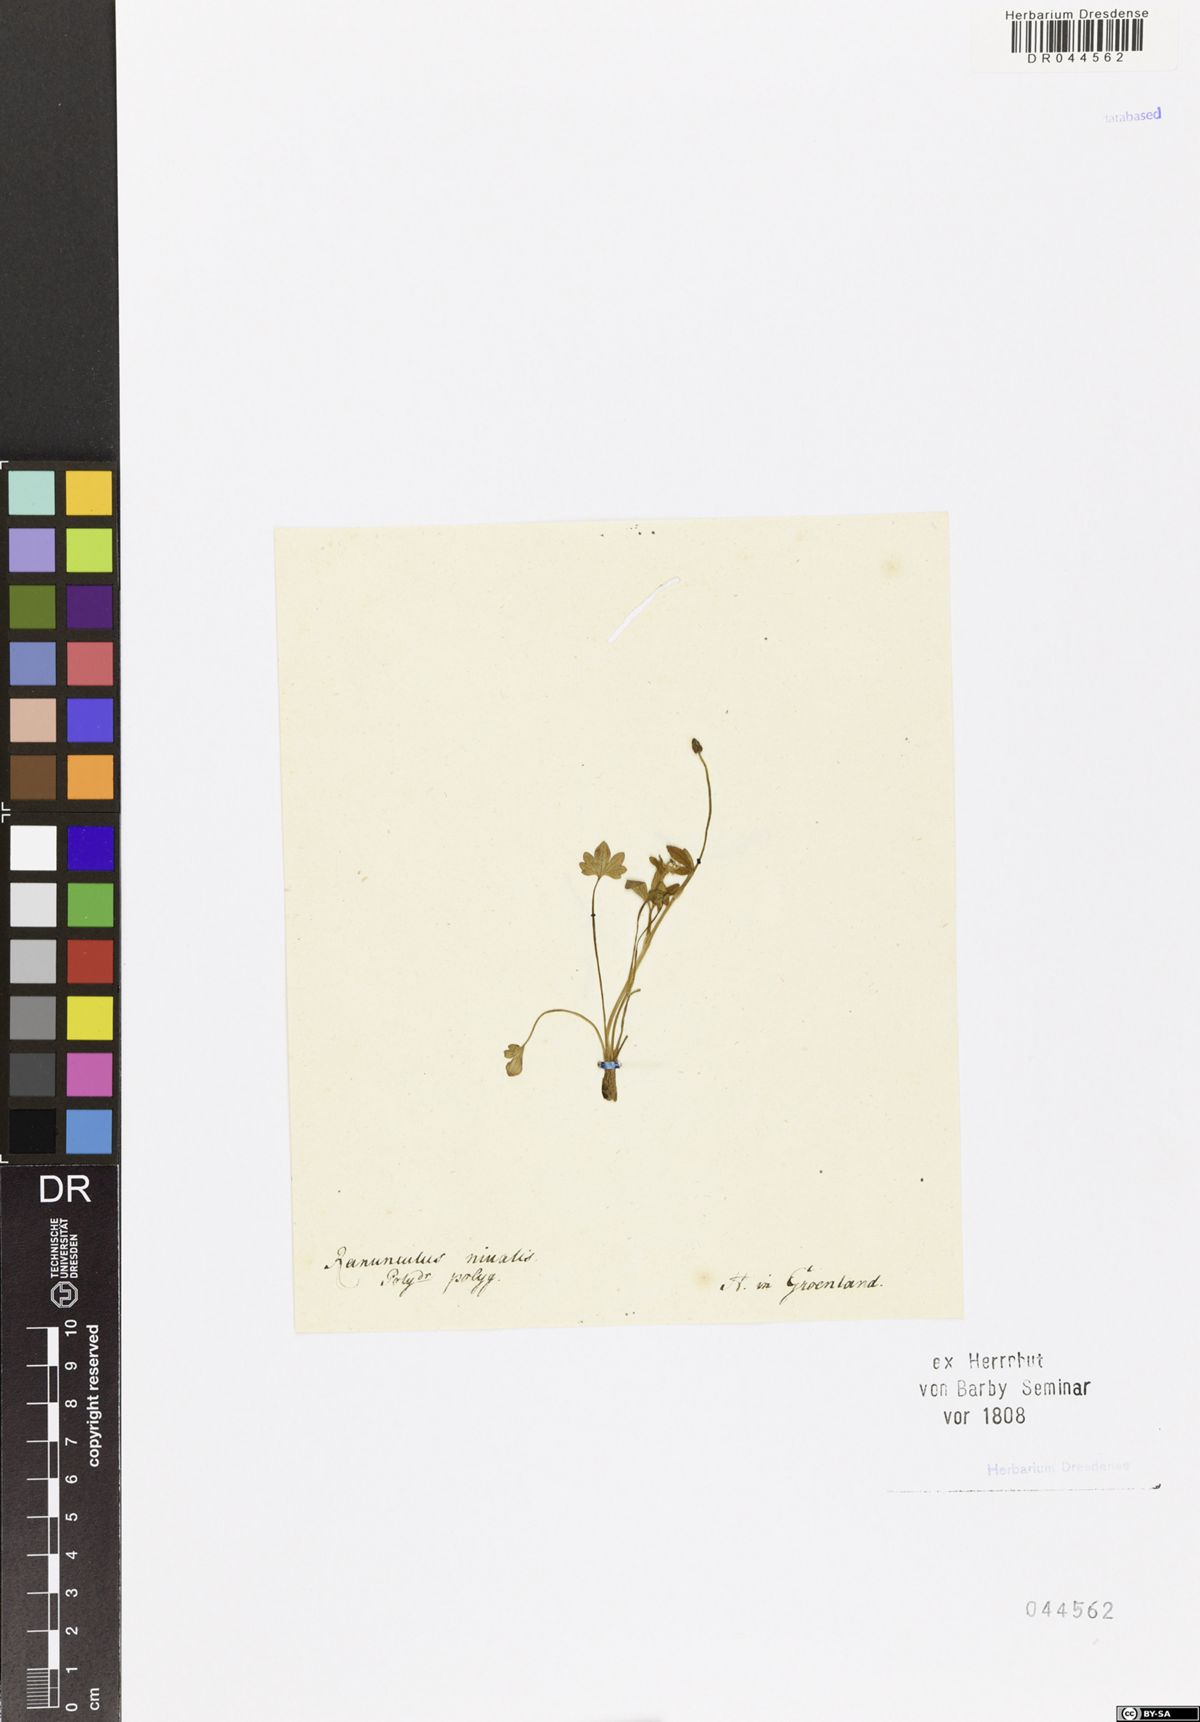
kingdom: Plantae
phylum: Tracheophyta
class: Magnoliopsida
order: Ranunculales
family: Ranunculaceae
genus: Ranunculus
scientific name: Ranunculus nivalis
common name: Snow buttercup
